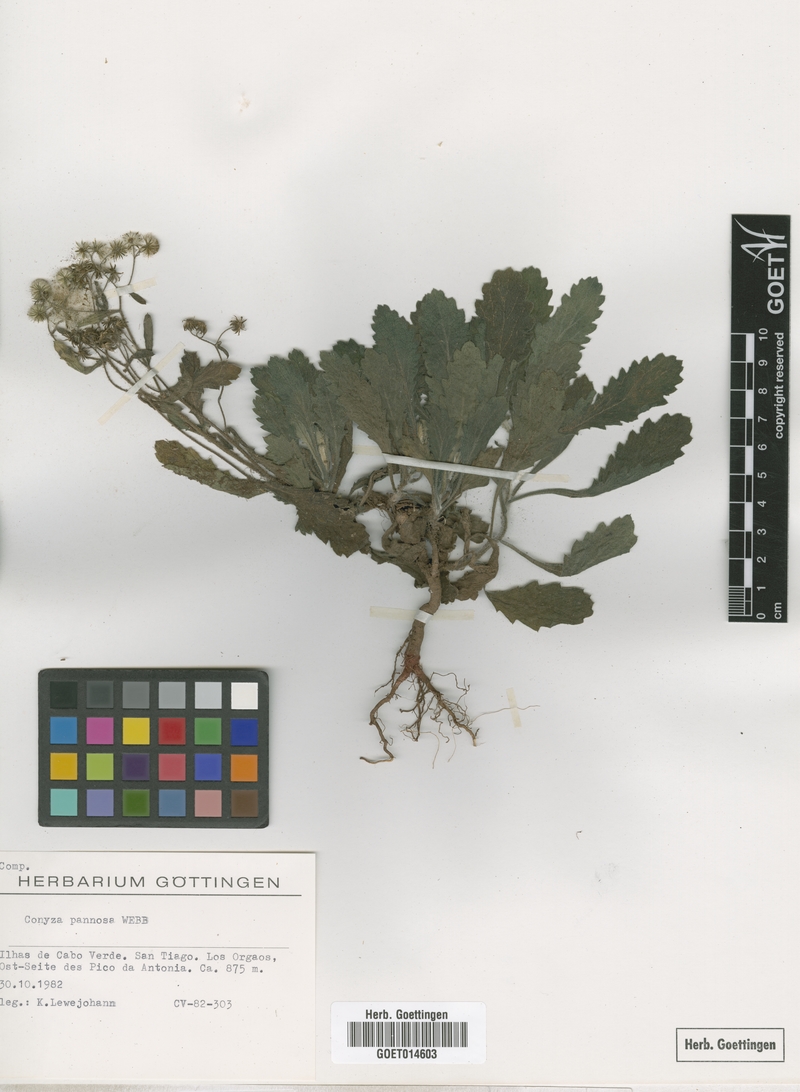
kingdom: Plantae
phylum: Tracheophyta
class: Magnoliopsida
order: Asterales
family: Asteraceae
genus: Conyza
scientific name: Conyza pannosa
